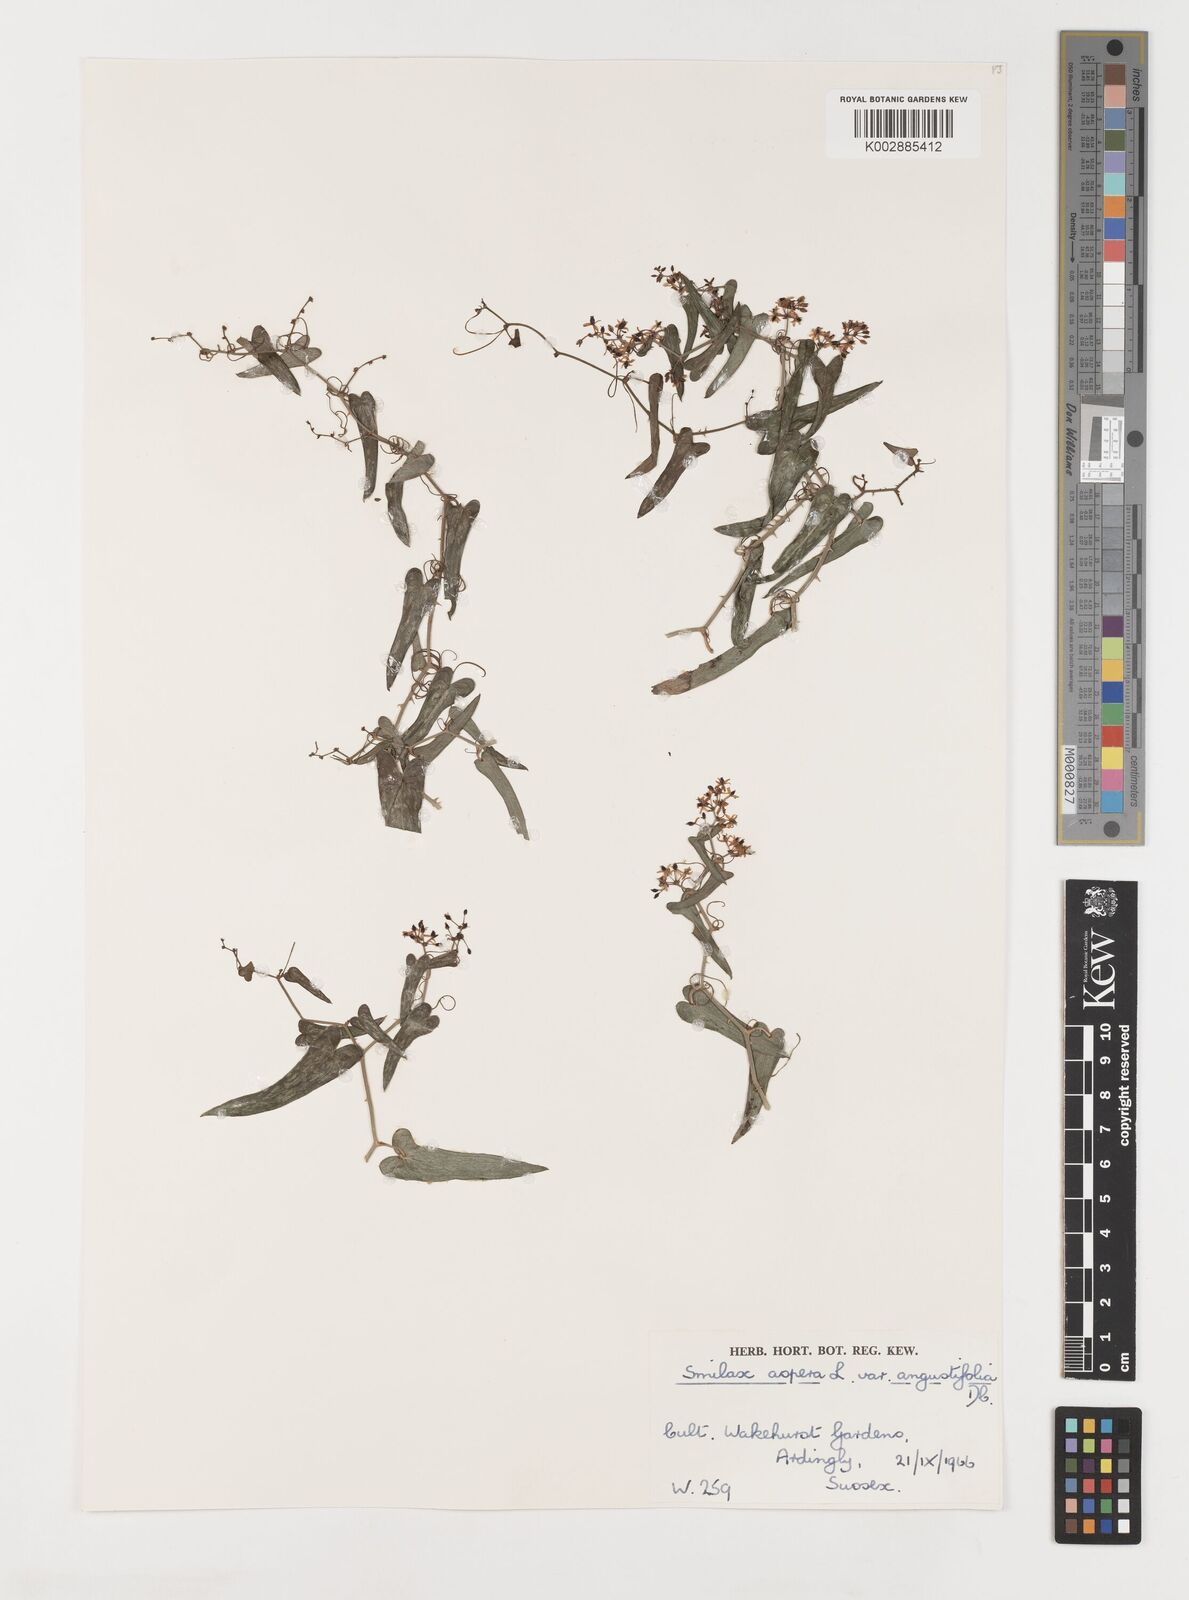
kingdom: Plantae
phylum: Tracheophyta
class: Liliopsida
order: Liliales
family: Smilacaceae
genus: Smilax
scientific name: Smilax aspera
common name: Common smilax
